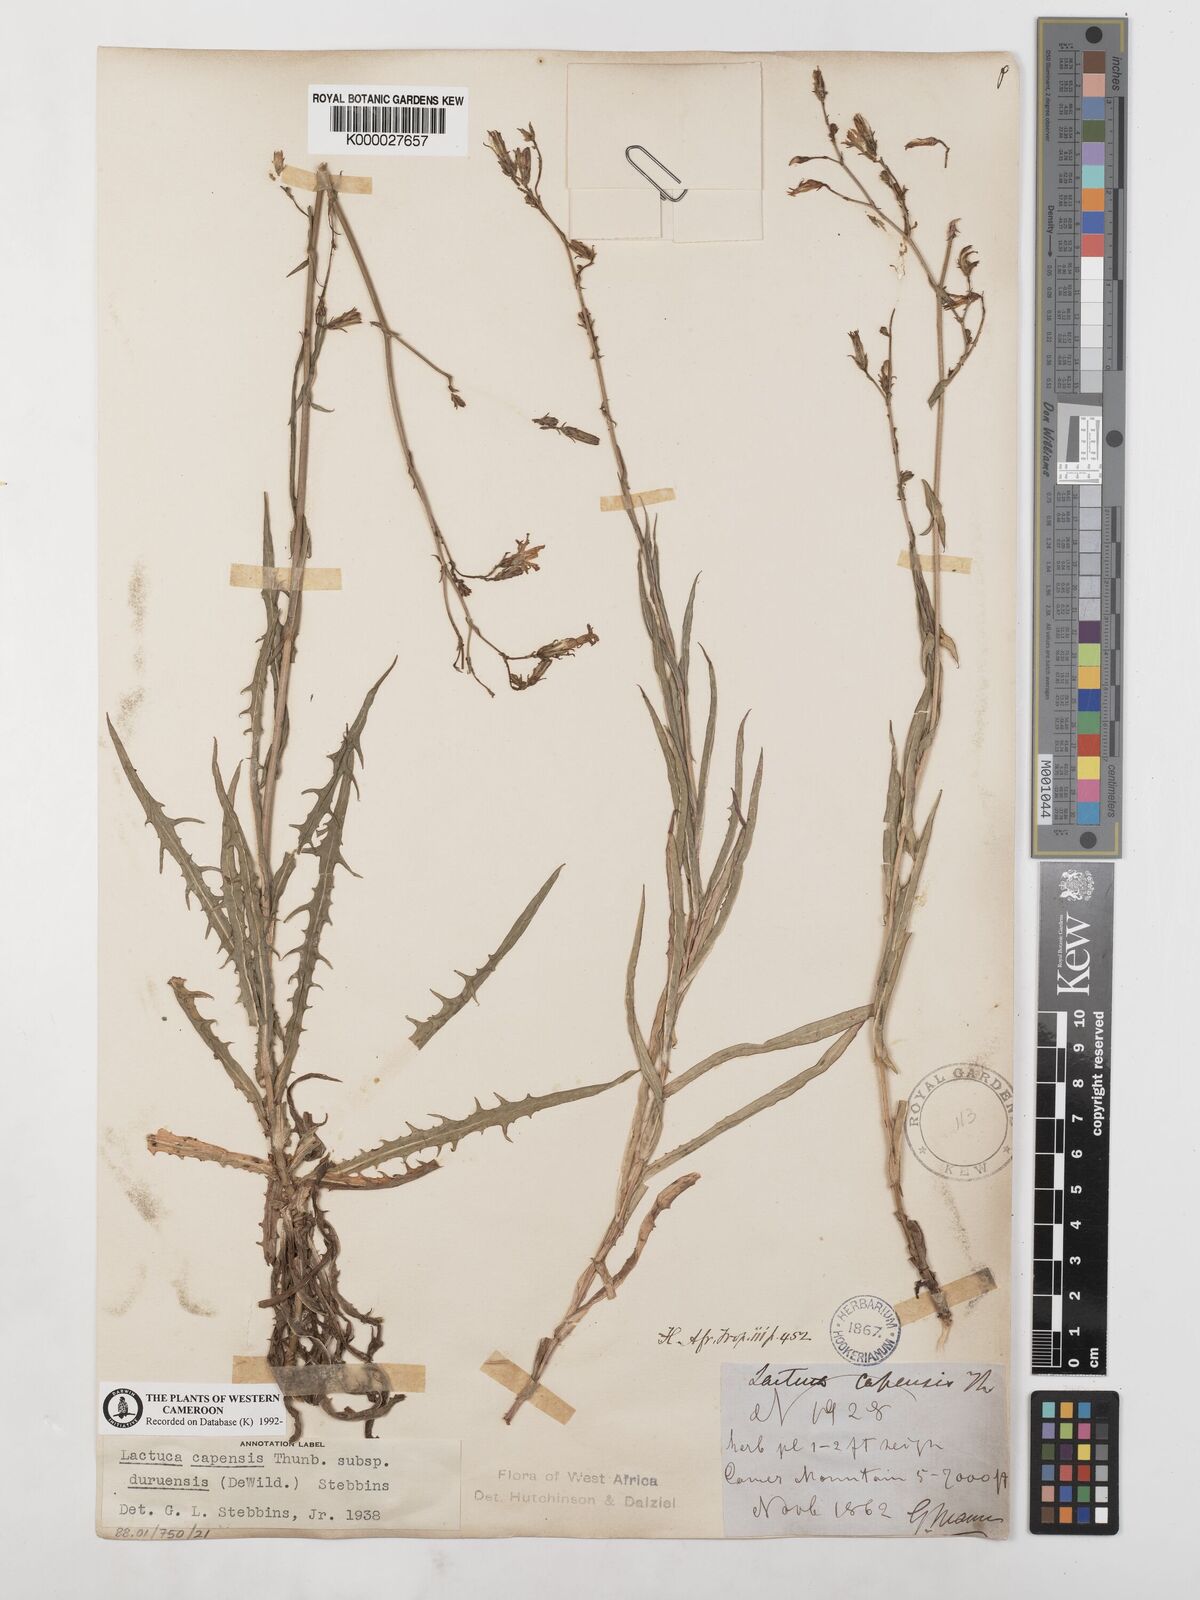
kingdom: Plantae
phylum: Tracheophyta
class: Magnoliopsida
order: Asterales
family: Asteraceae
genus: Lactuca
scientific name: Lactuca inermis
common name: Wild lettuce
